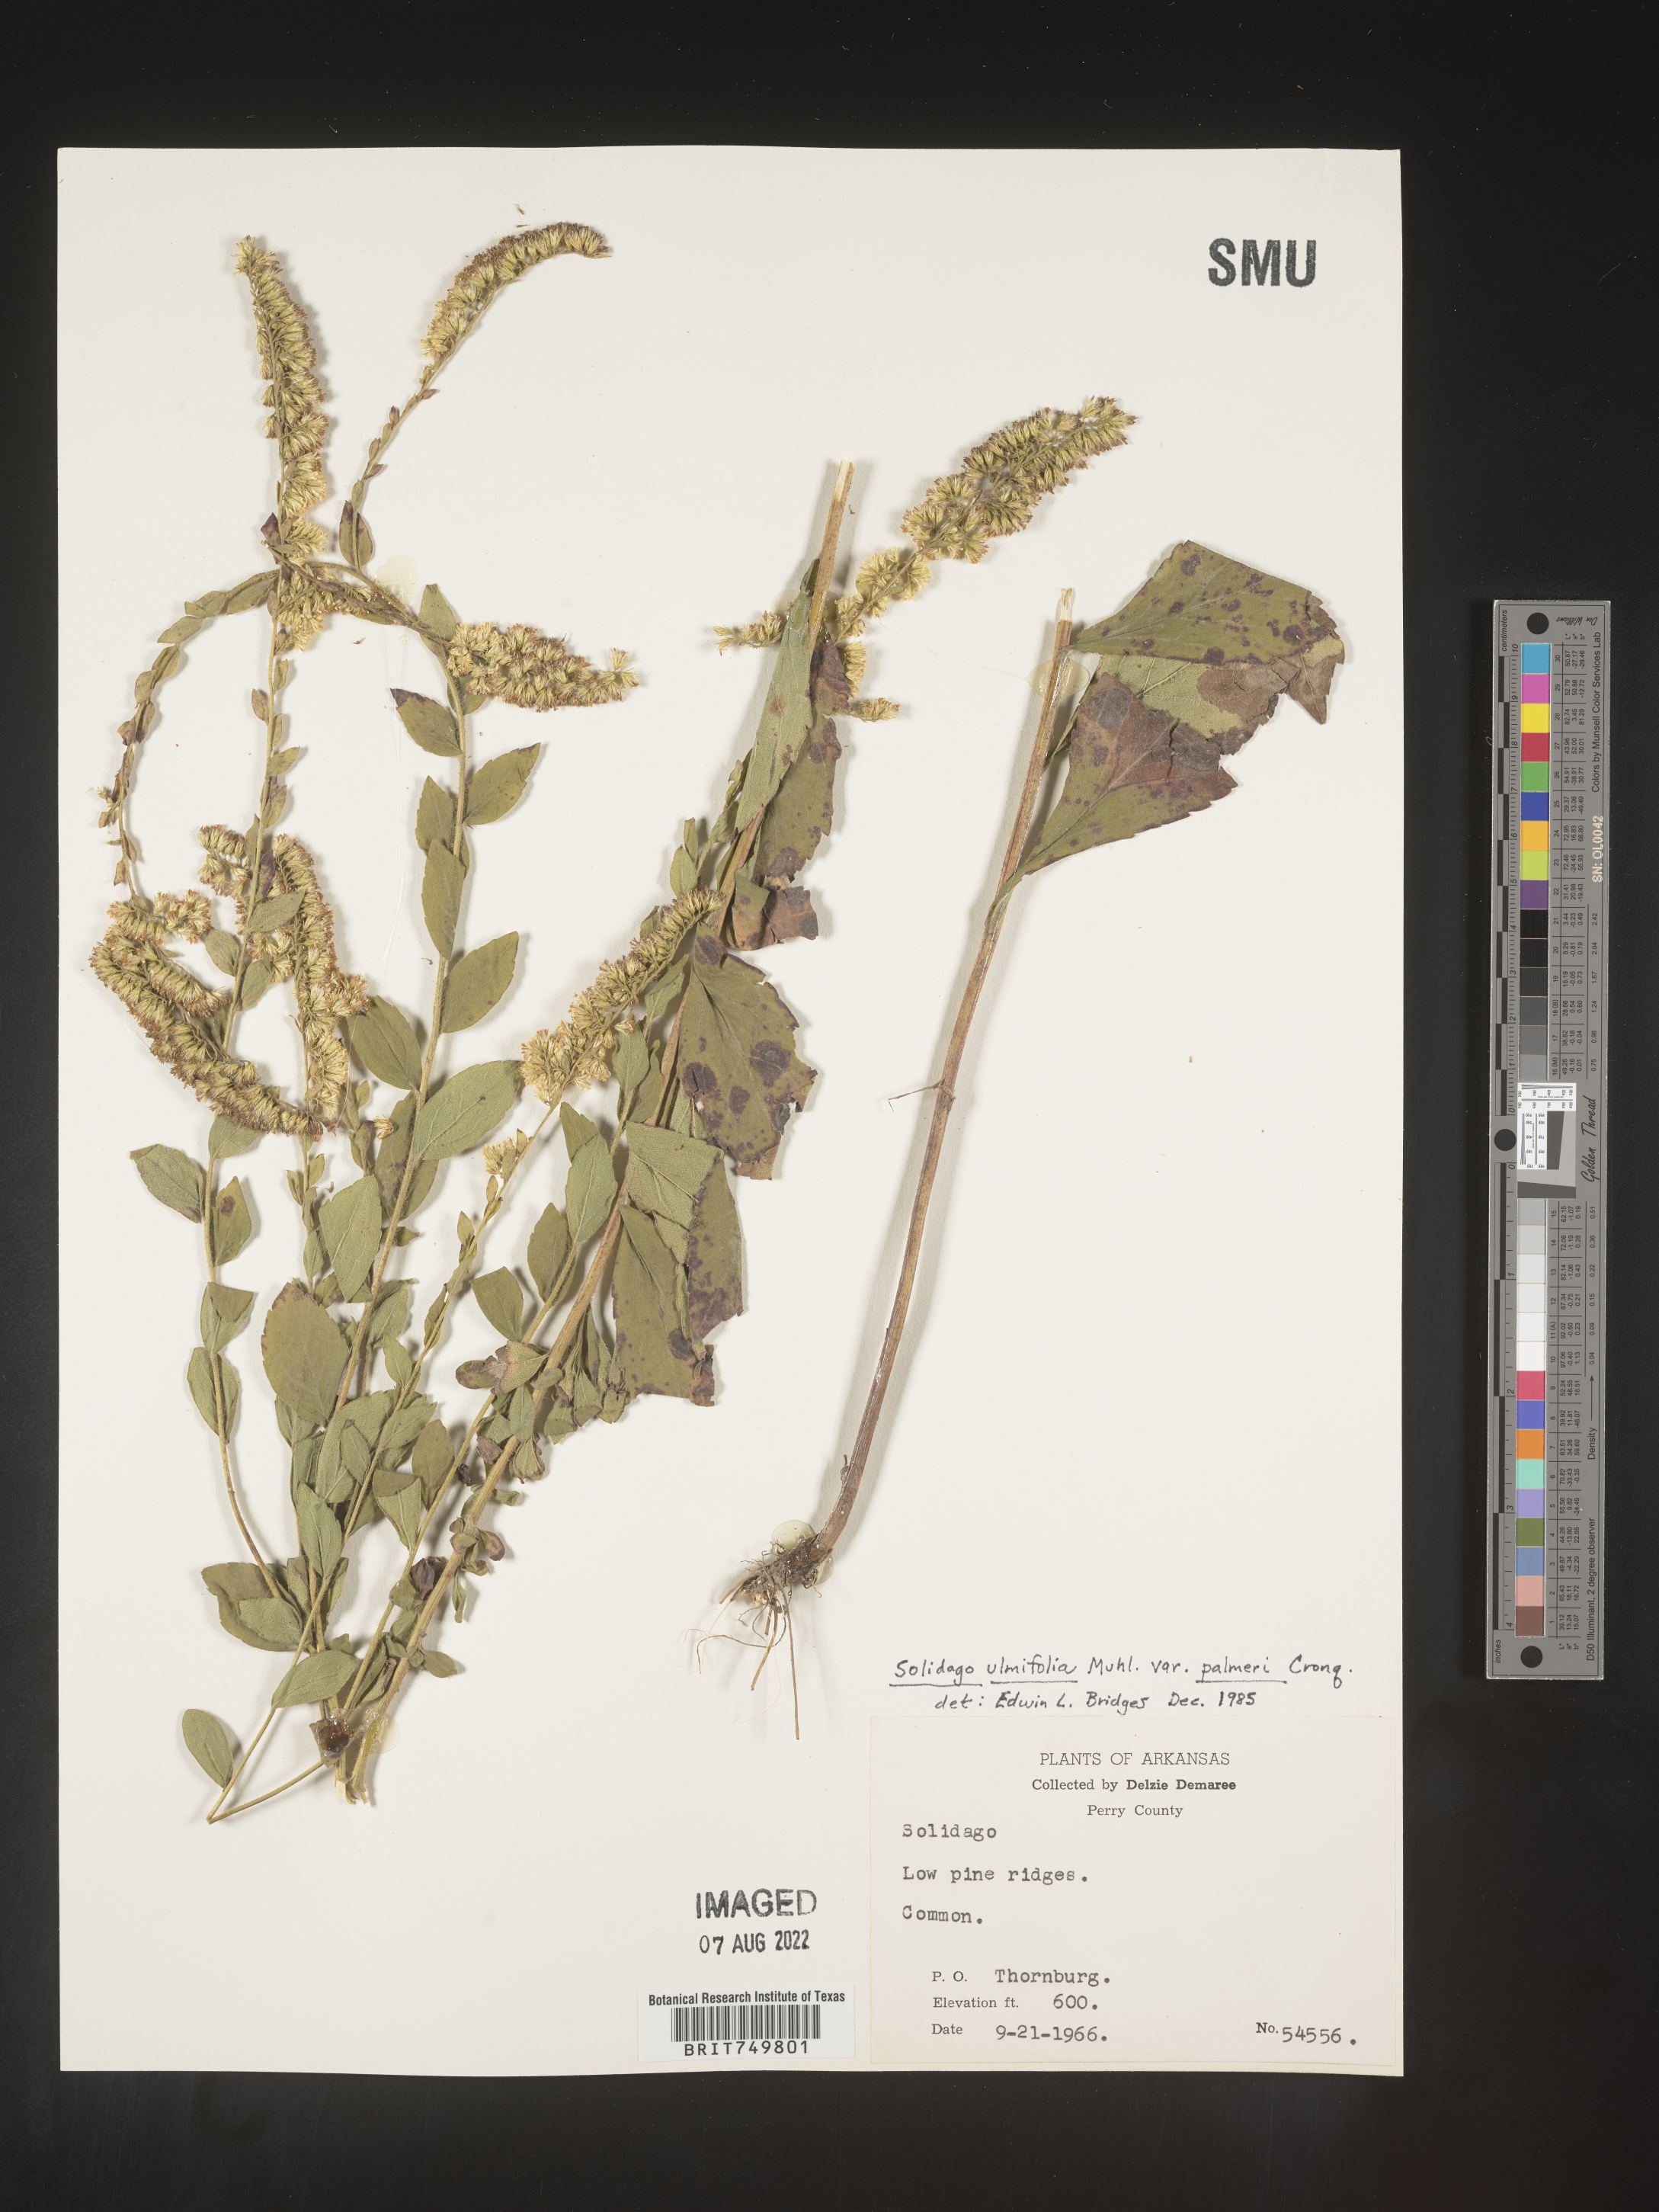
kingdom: Plantae
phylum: Tracheophyta
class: Magnoliopsida
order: Asterales
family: Asteraceae
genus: Solidago
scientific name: Solidago ulmifolia
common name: Elm-leaf goldenrod
